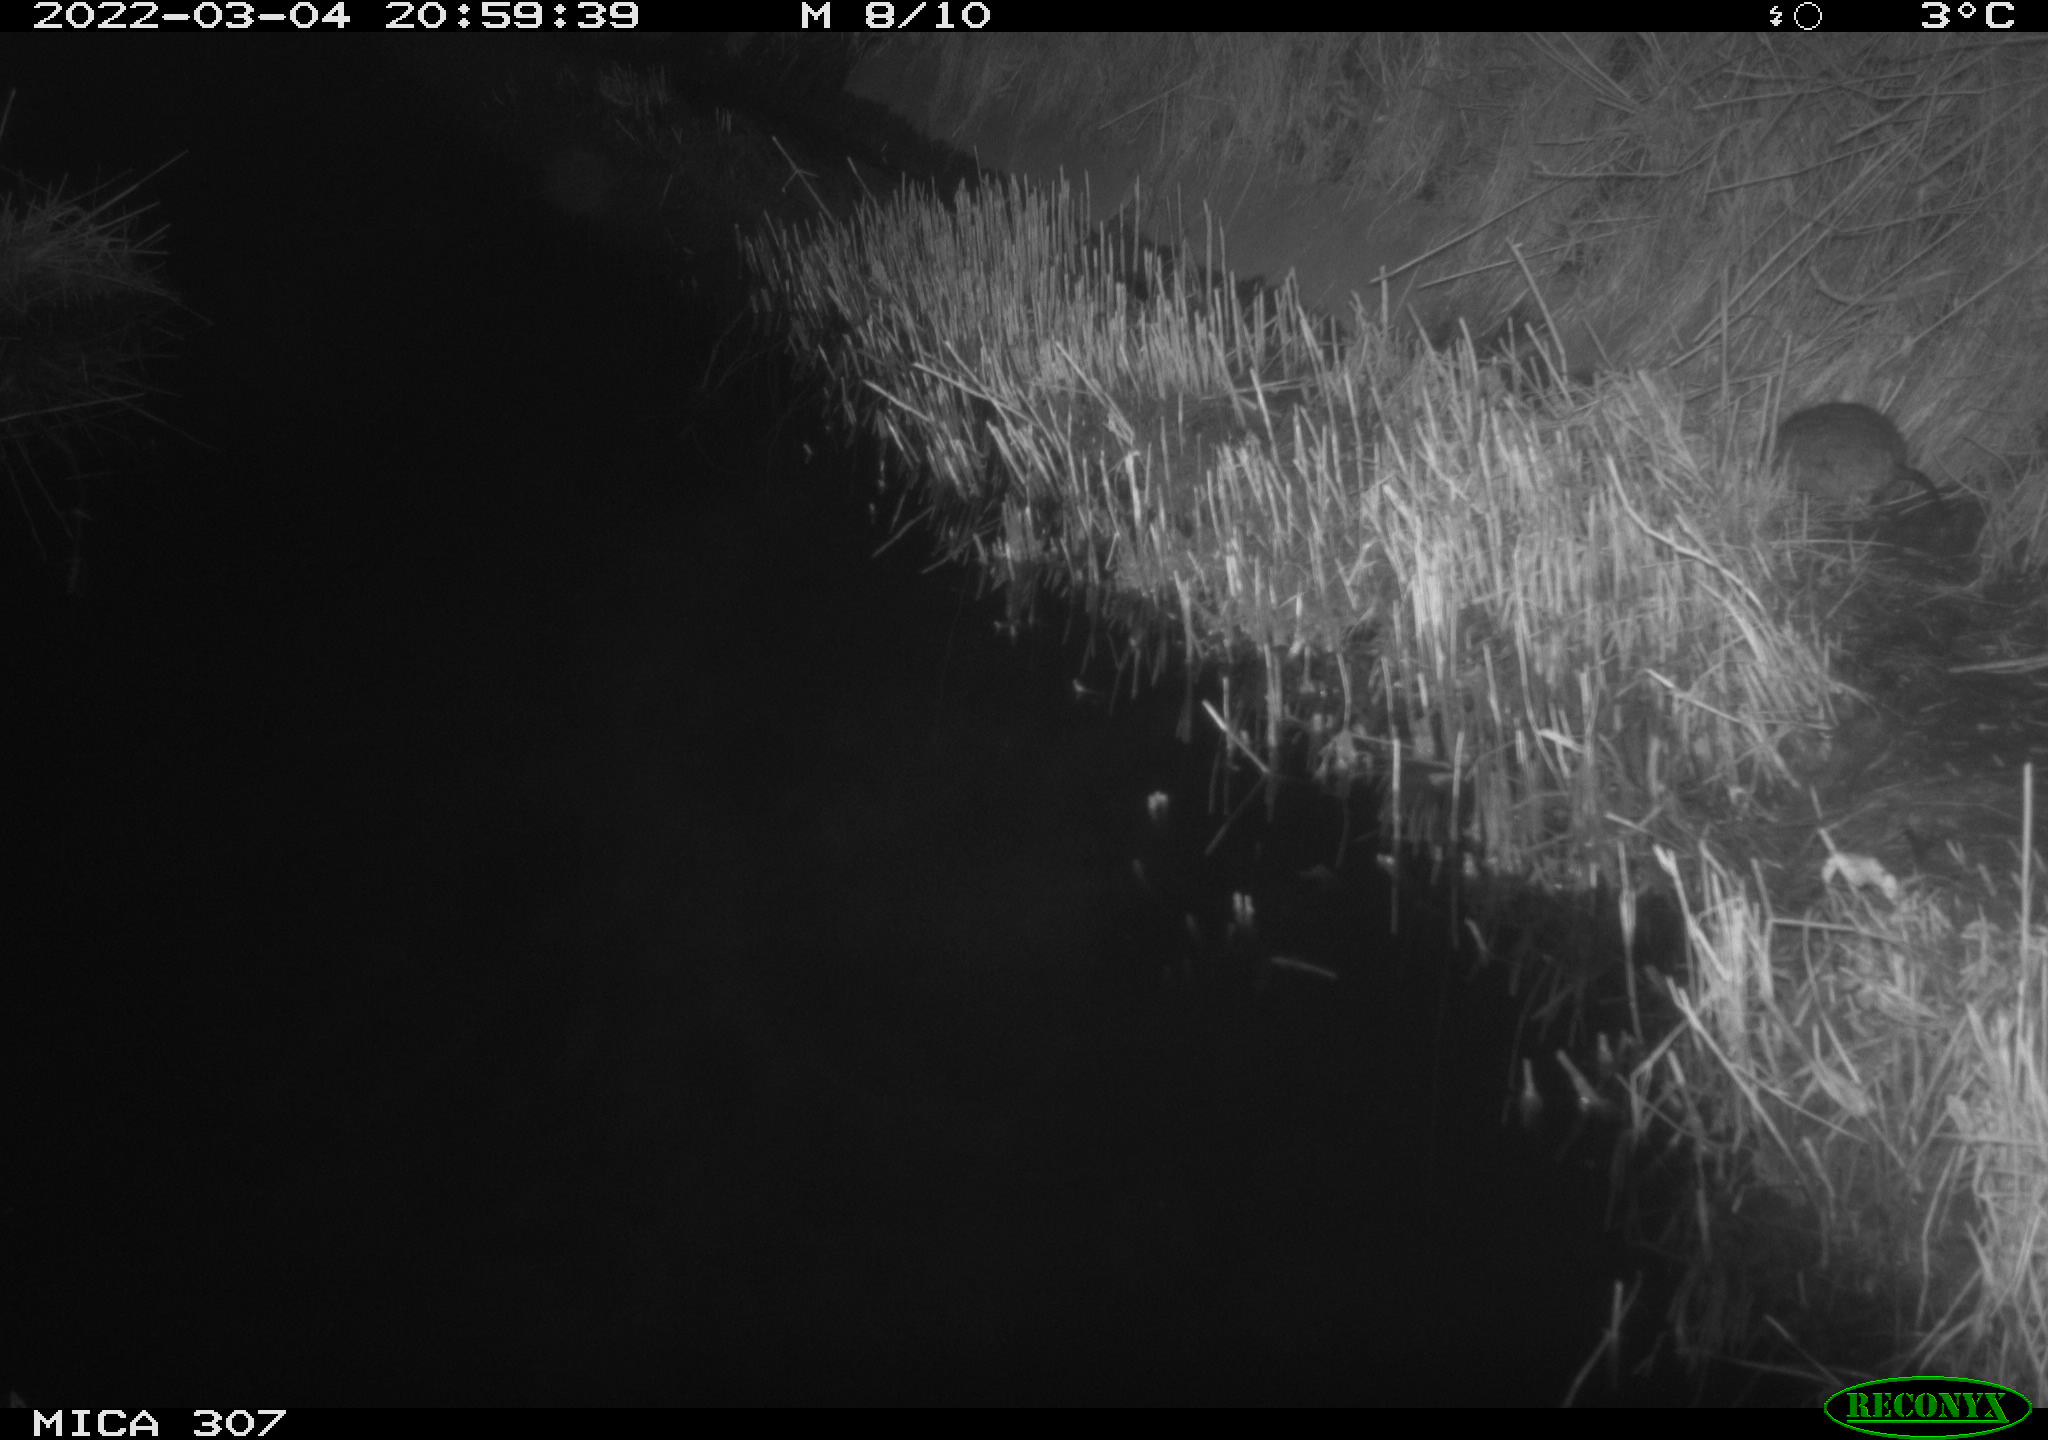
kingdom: Animalia
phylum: Chordata
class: Mammalia
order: Rodentia
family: Muridae
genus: Rattus
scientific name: Rattus norvegicus
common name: Brown rat
